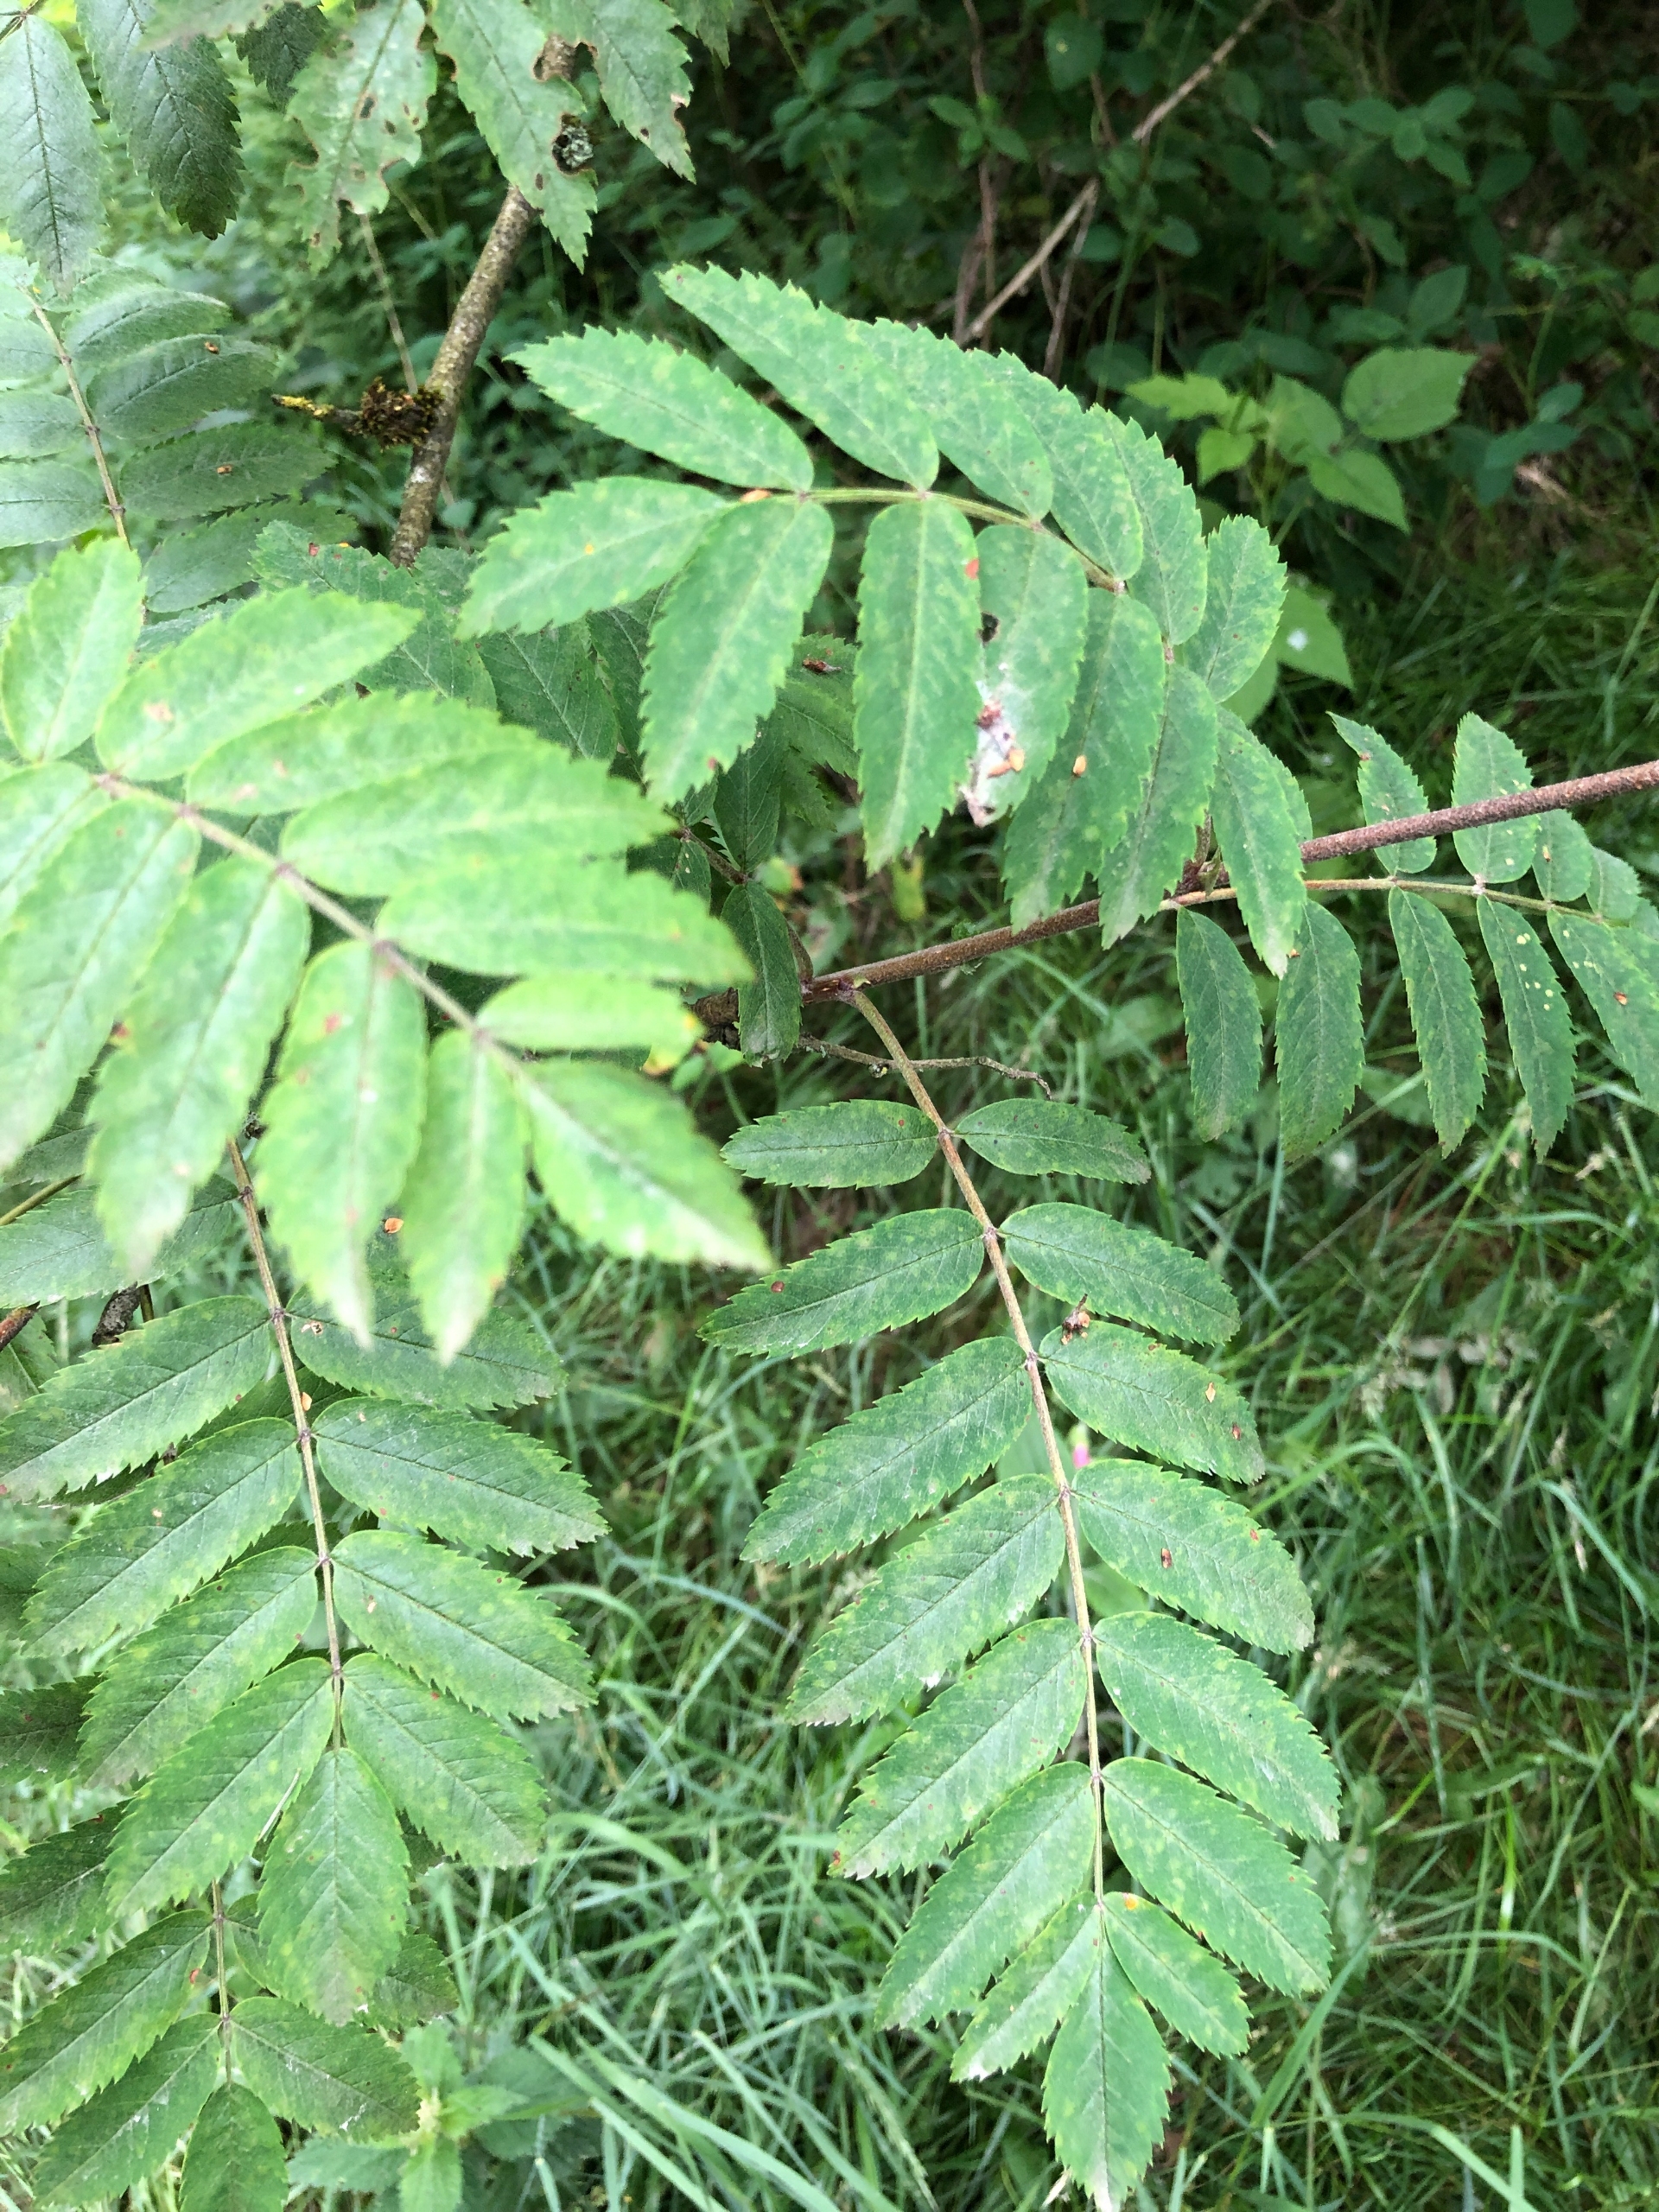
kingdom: Plantae
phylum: Tracheophyta
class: Magnoliopsida
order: Rosales
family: Rosaceae
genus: Sorbus
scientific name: Sorbus aucuparia
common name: Almindelig røn
